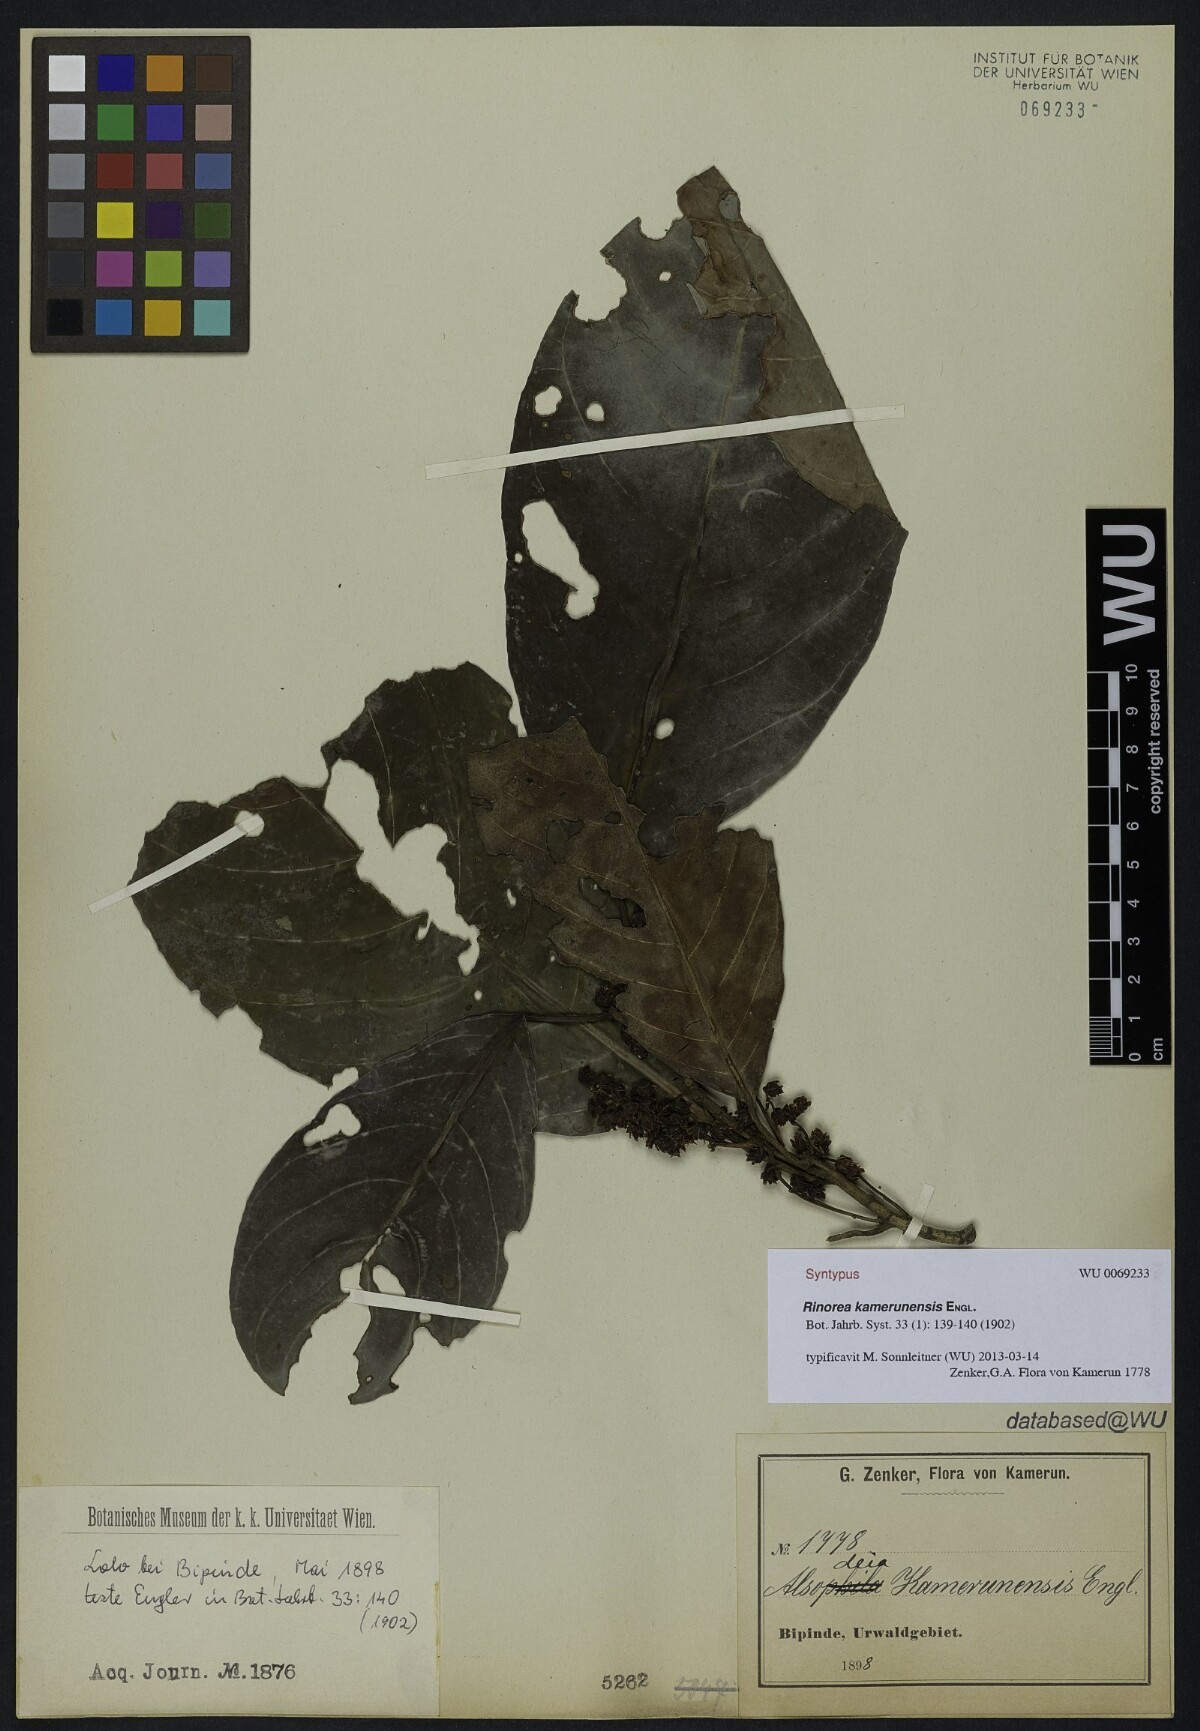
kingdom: Plantae
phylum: Tracheophyta
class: Magnoliopsida
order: Malpighiales
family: Violaceae
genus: Rinorea
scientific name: Rinorea kamerunensis
